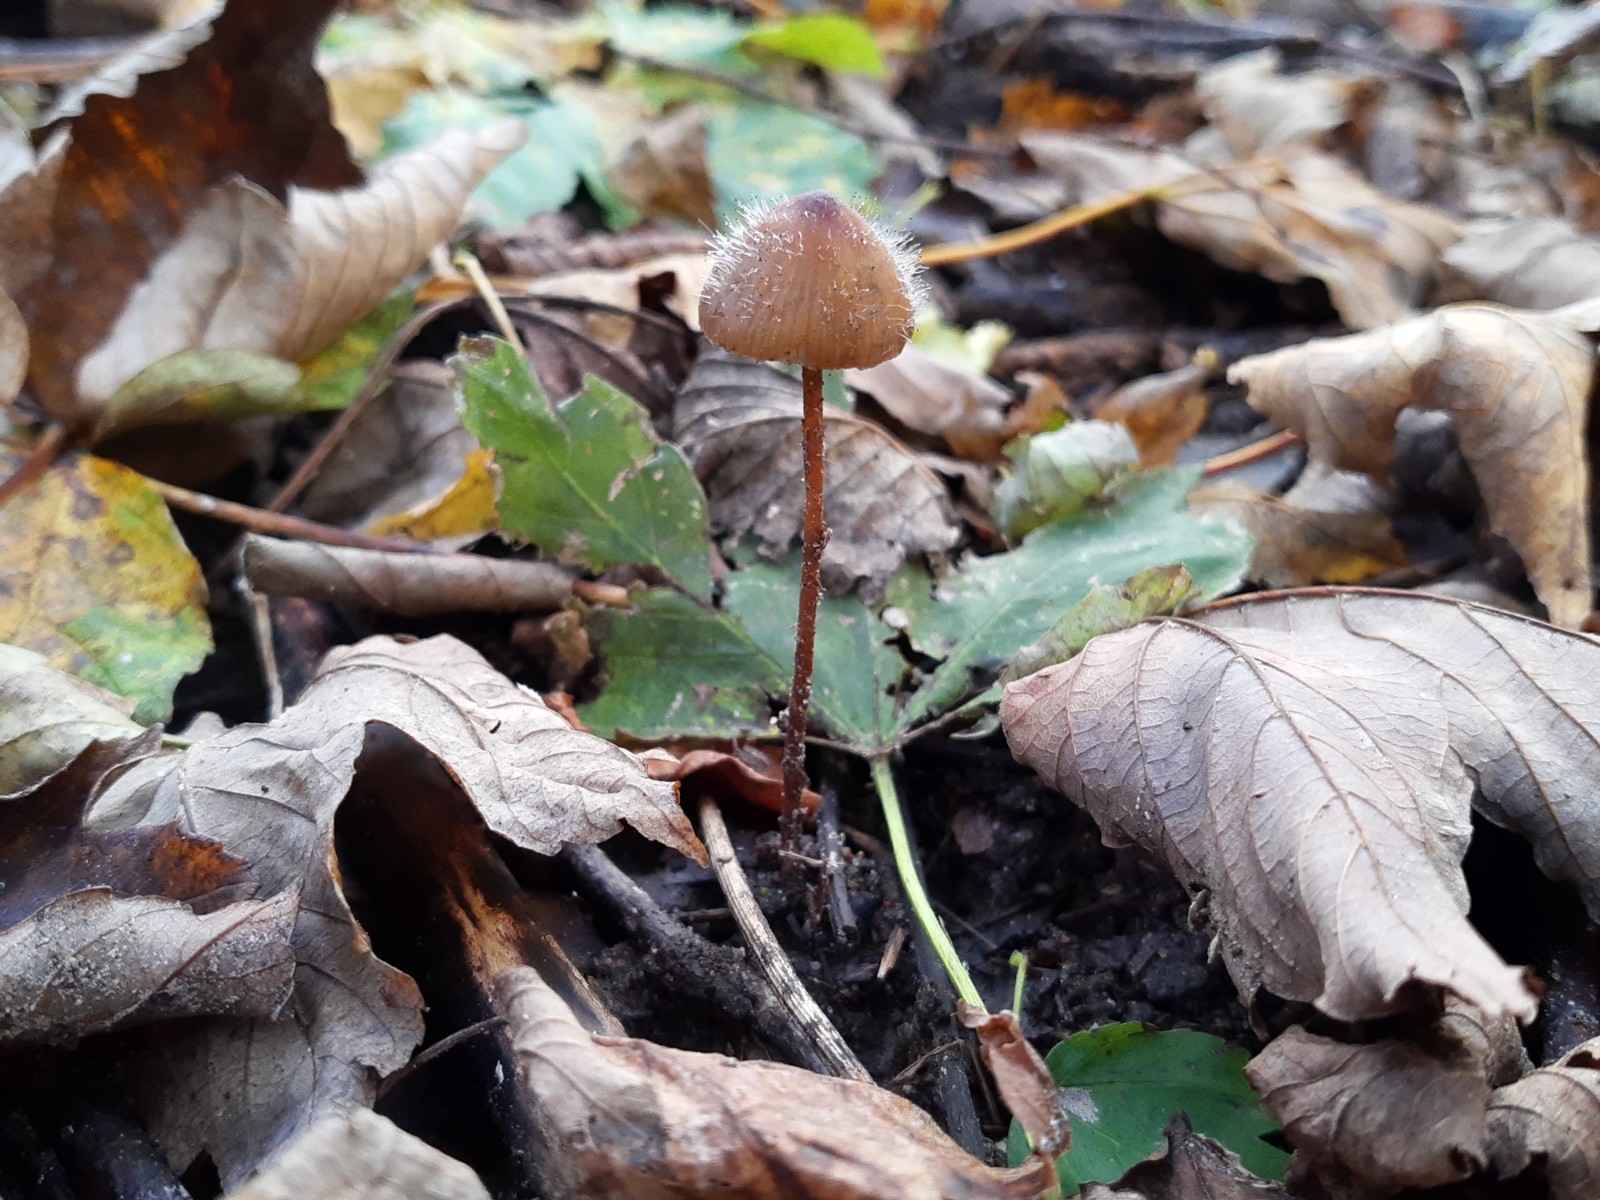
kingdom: Fungi
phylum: Mucoromycota
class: Mucoromycetes
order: Mucorales
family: Phycomycetaceae
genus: Spinellus
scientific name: Spinellus fusiger
